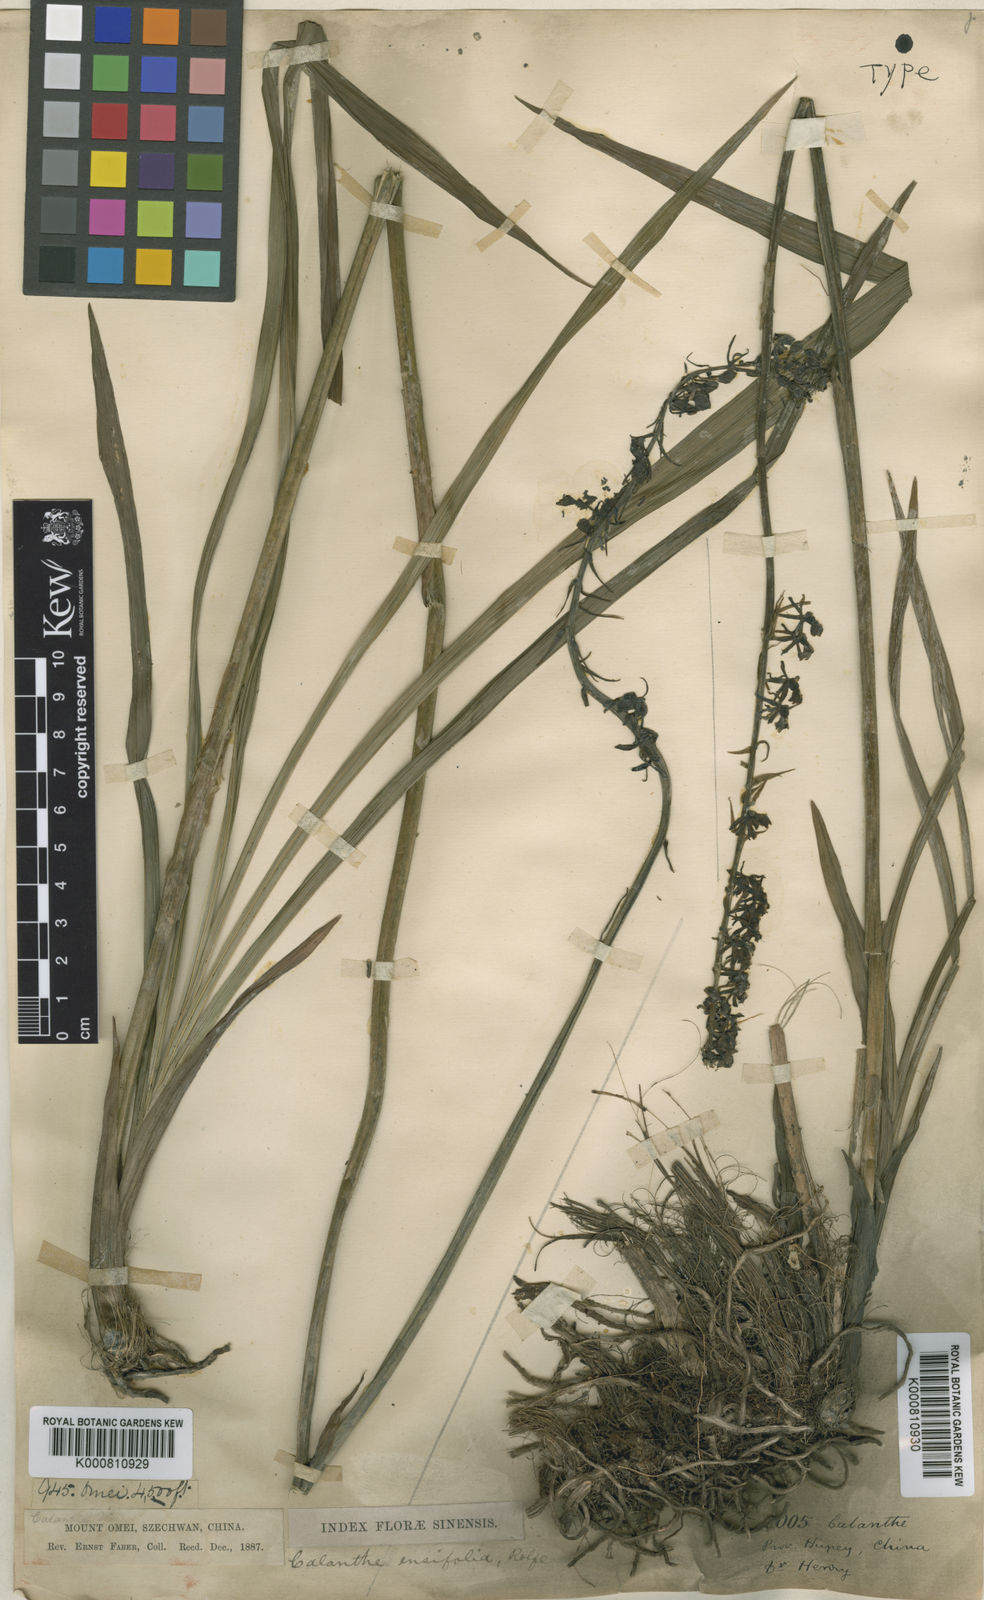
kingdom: Plantae
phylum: Tracheophyta
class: Liliopsida
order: Asparagales
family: Orchidaceae
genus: Calanthe
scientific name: Calanthe davidii
